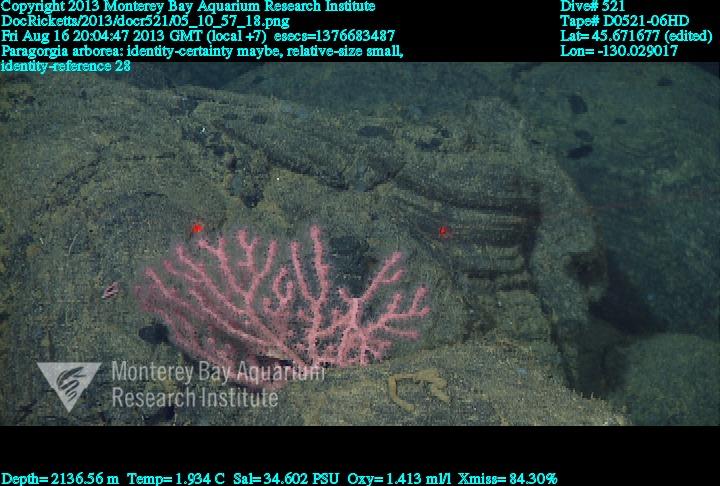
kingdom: Animalia
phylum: Cnidaria
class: Anthozoa
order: Scleralcyonacea
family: Coralliidae
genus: Paragorgia
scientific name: Paragorgia arborea
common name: Bubble gum coral
